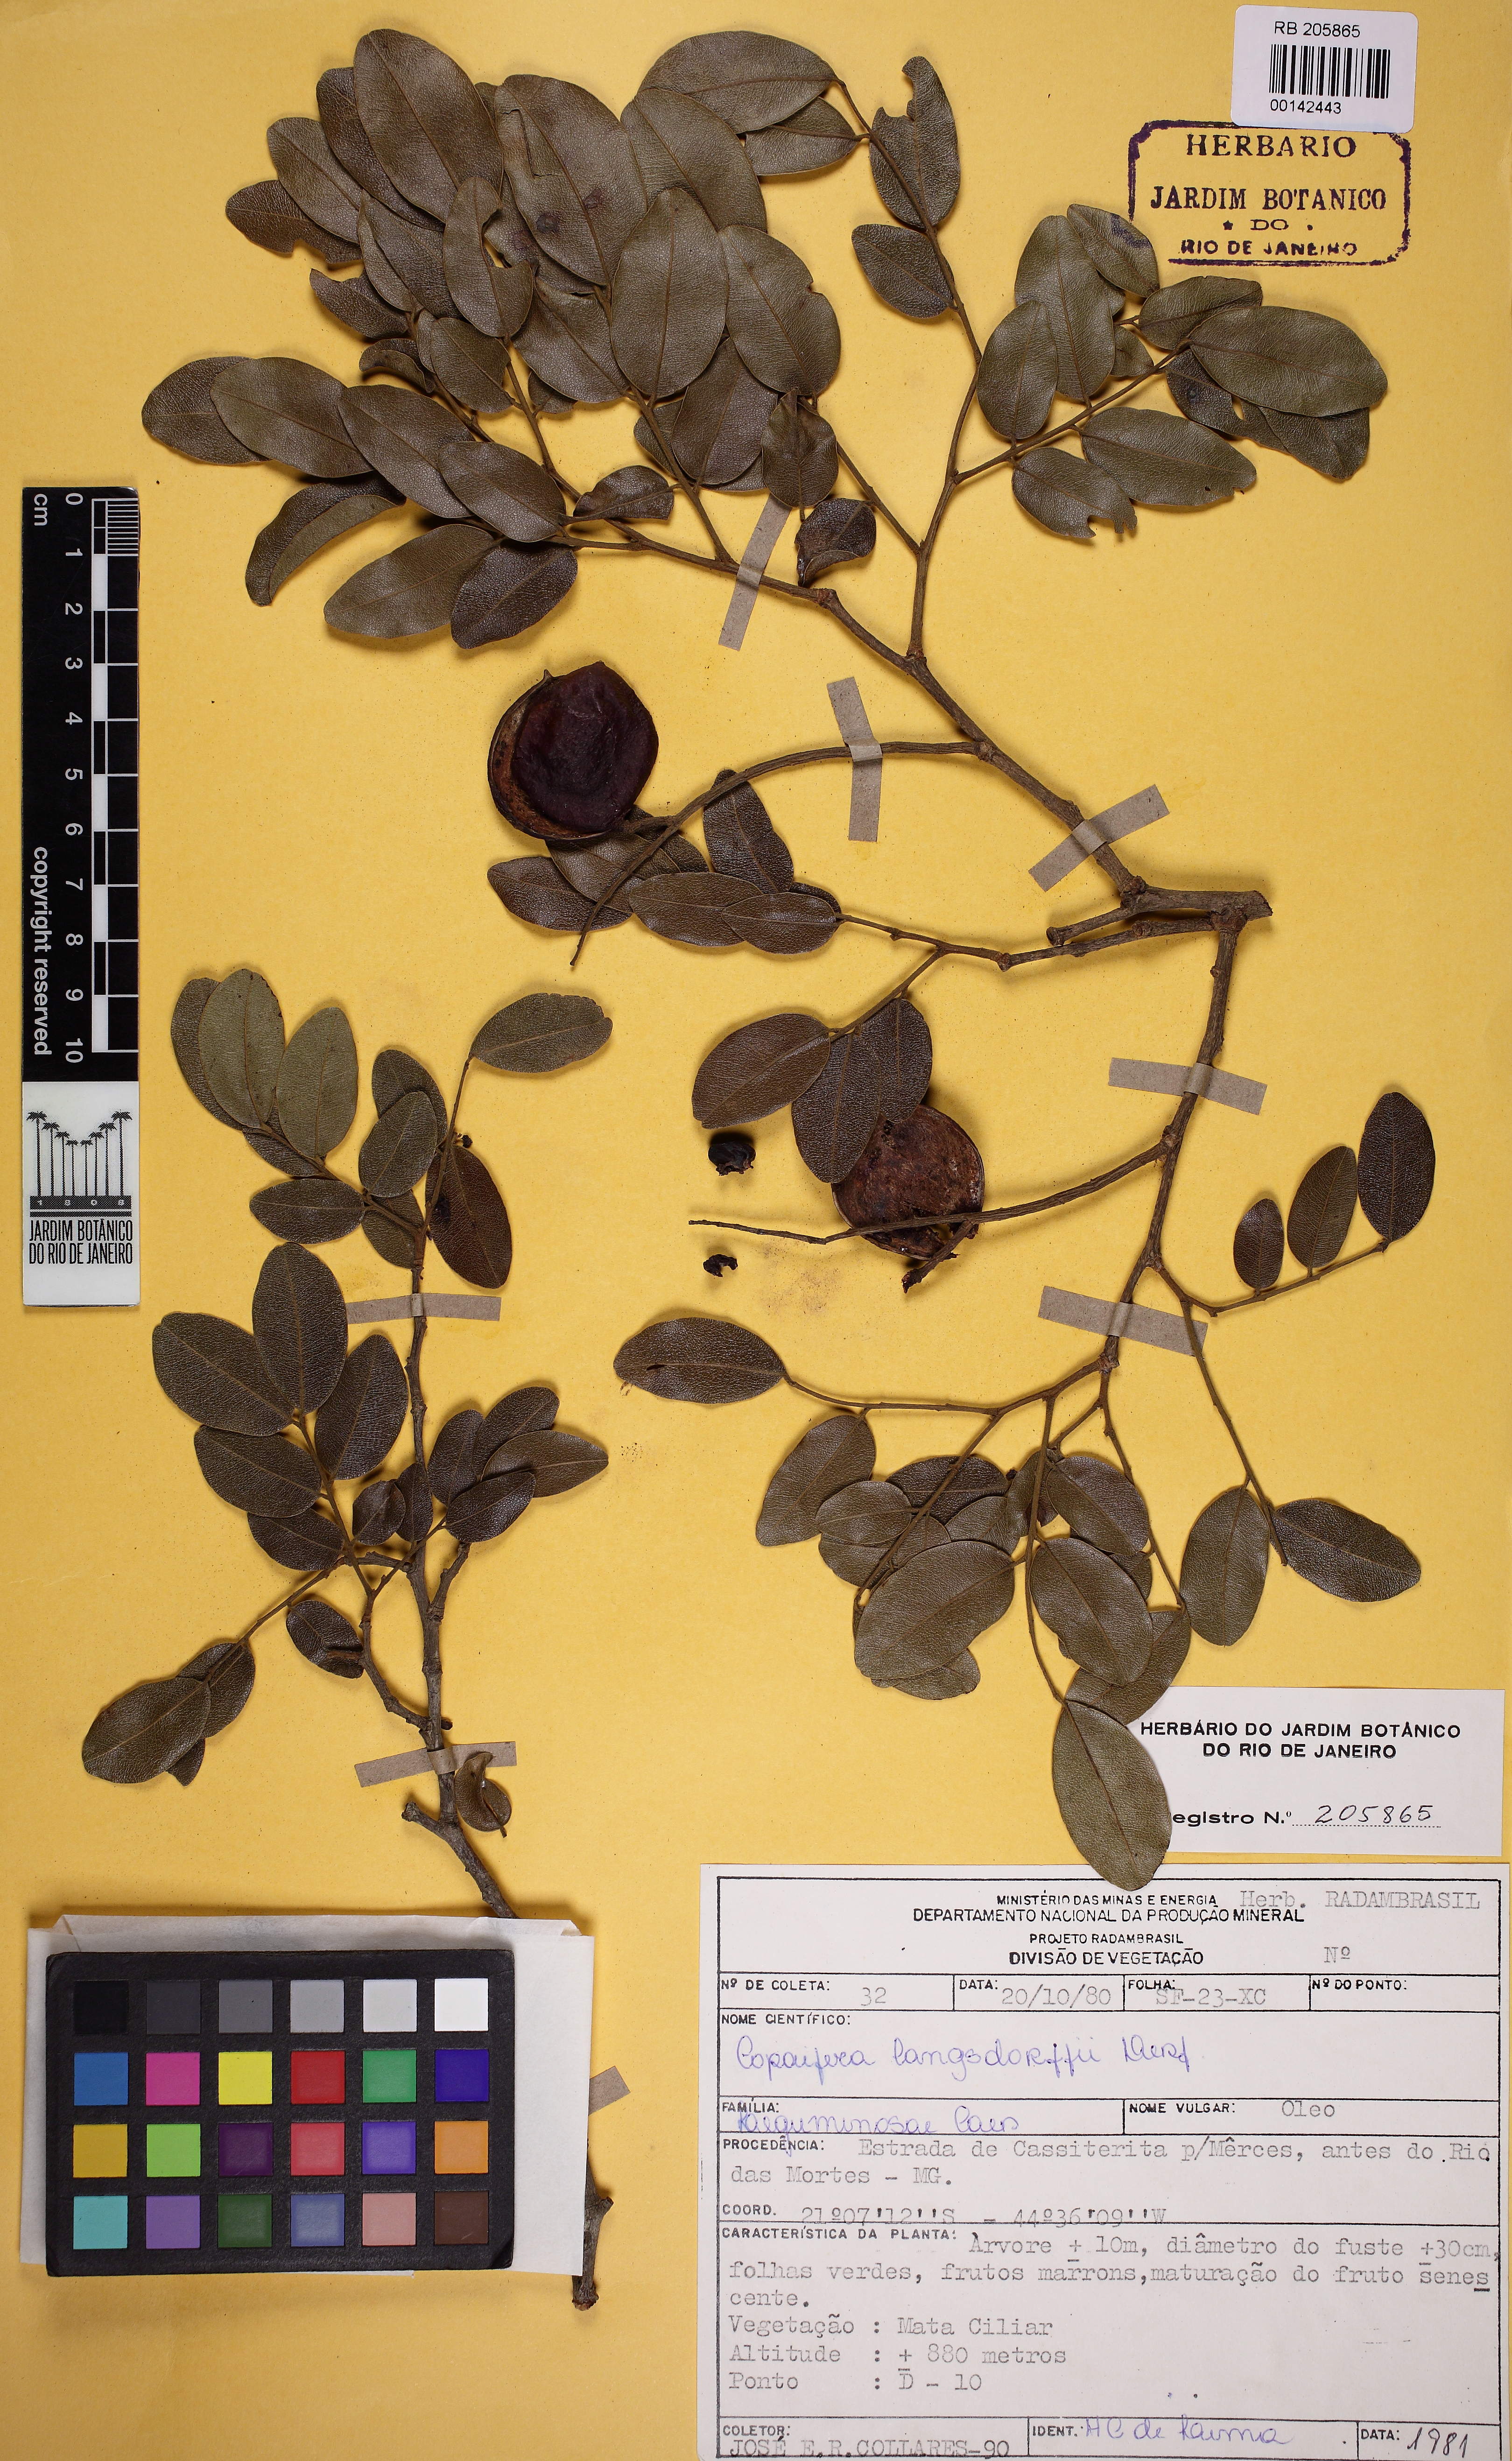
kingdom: Plantae
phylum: Tracheophyta
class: Magnoliopsida
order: Fabales
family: Fabaceae
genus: Copaifera
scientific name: Copaifera langsdorffii
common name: Brazilian diesel tree
